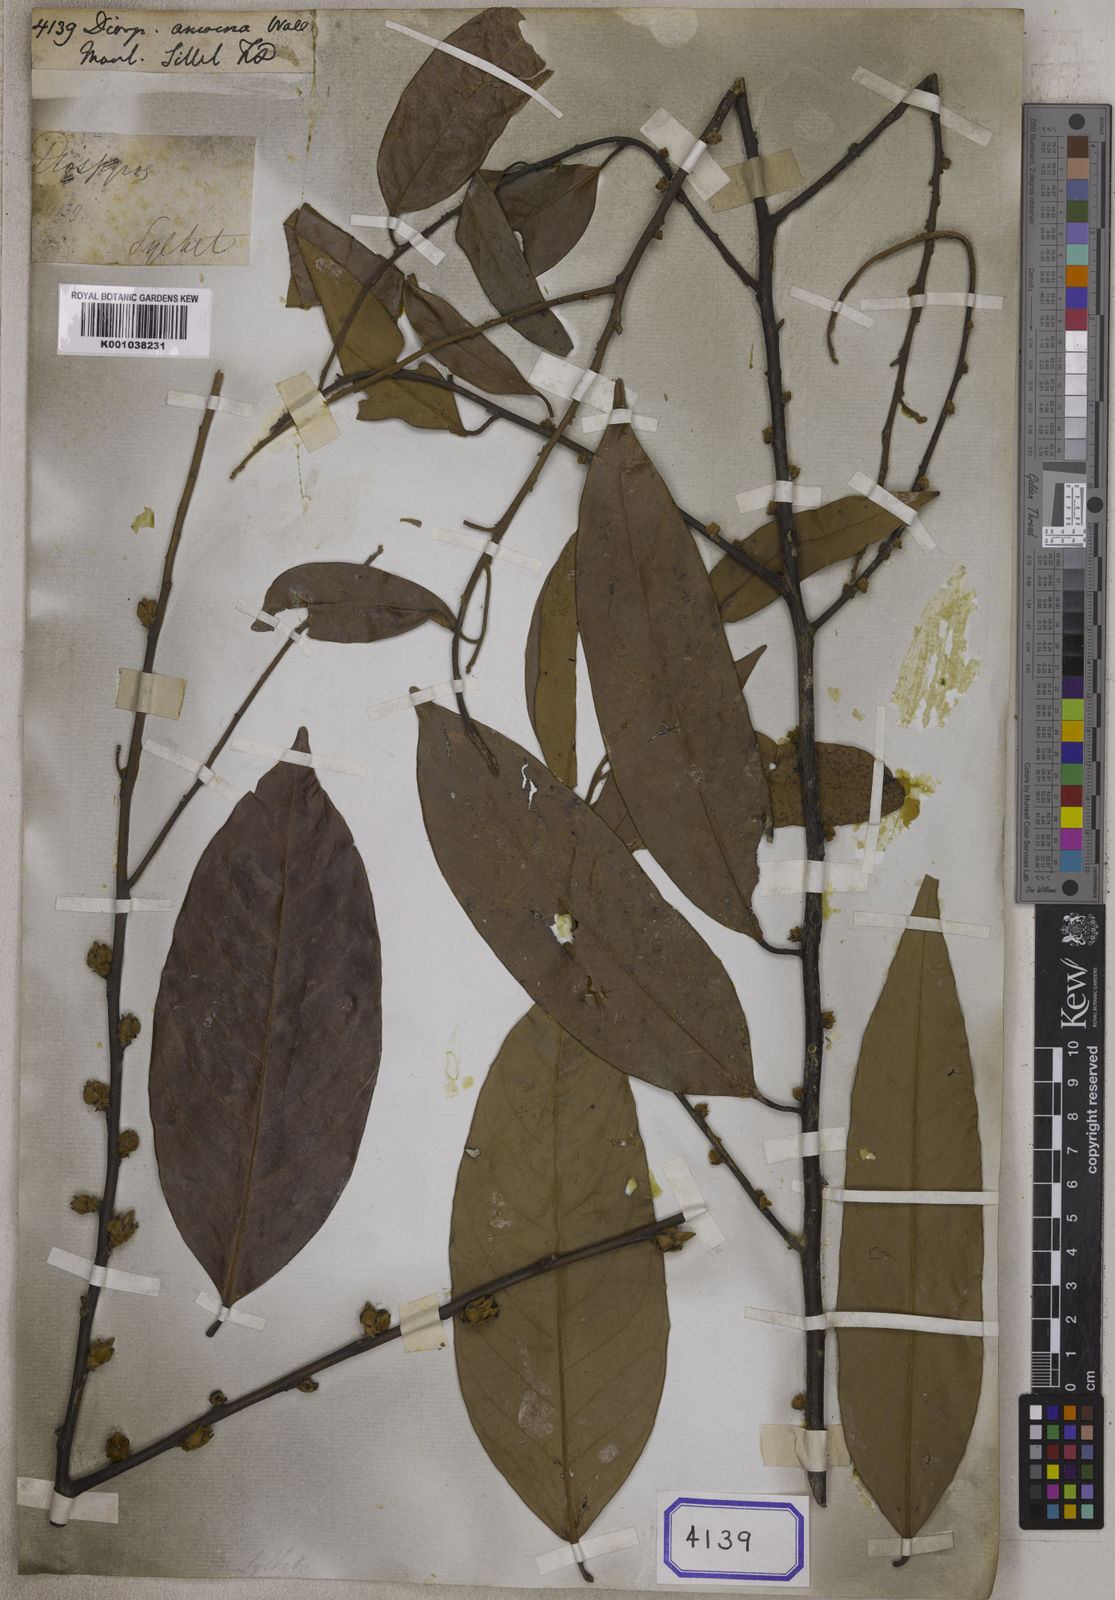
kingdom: Plantae
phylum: Tracheophyta
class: Magnoliopsida
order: Ericales
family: Ebenaceae
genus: Diospyros
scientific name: Diospyros
